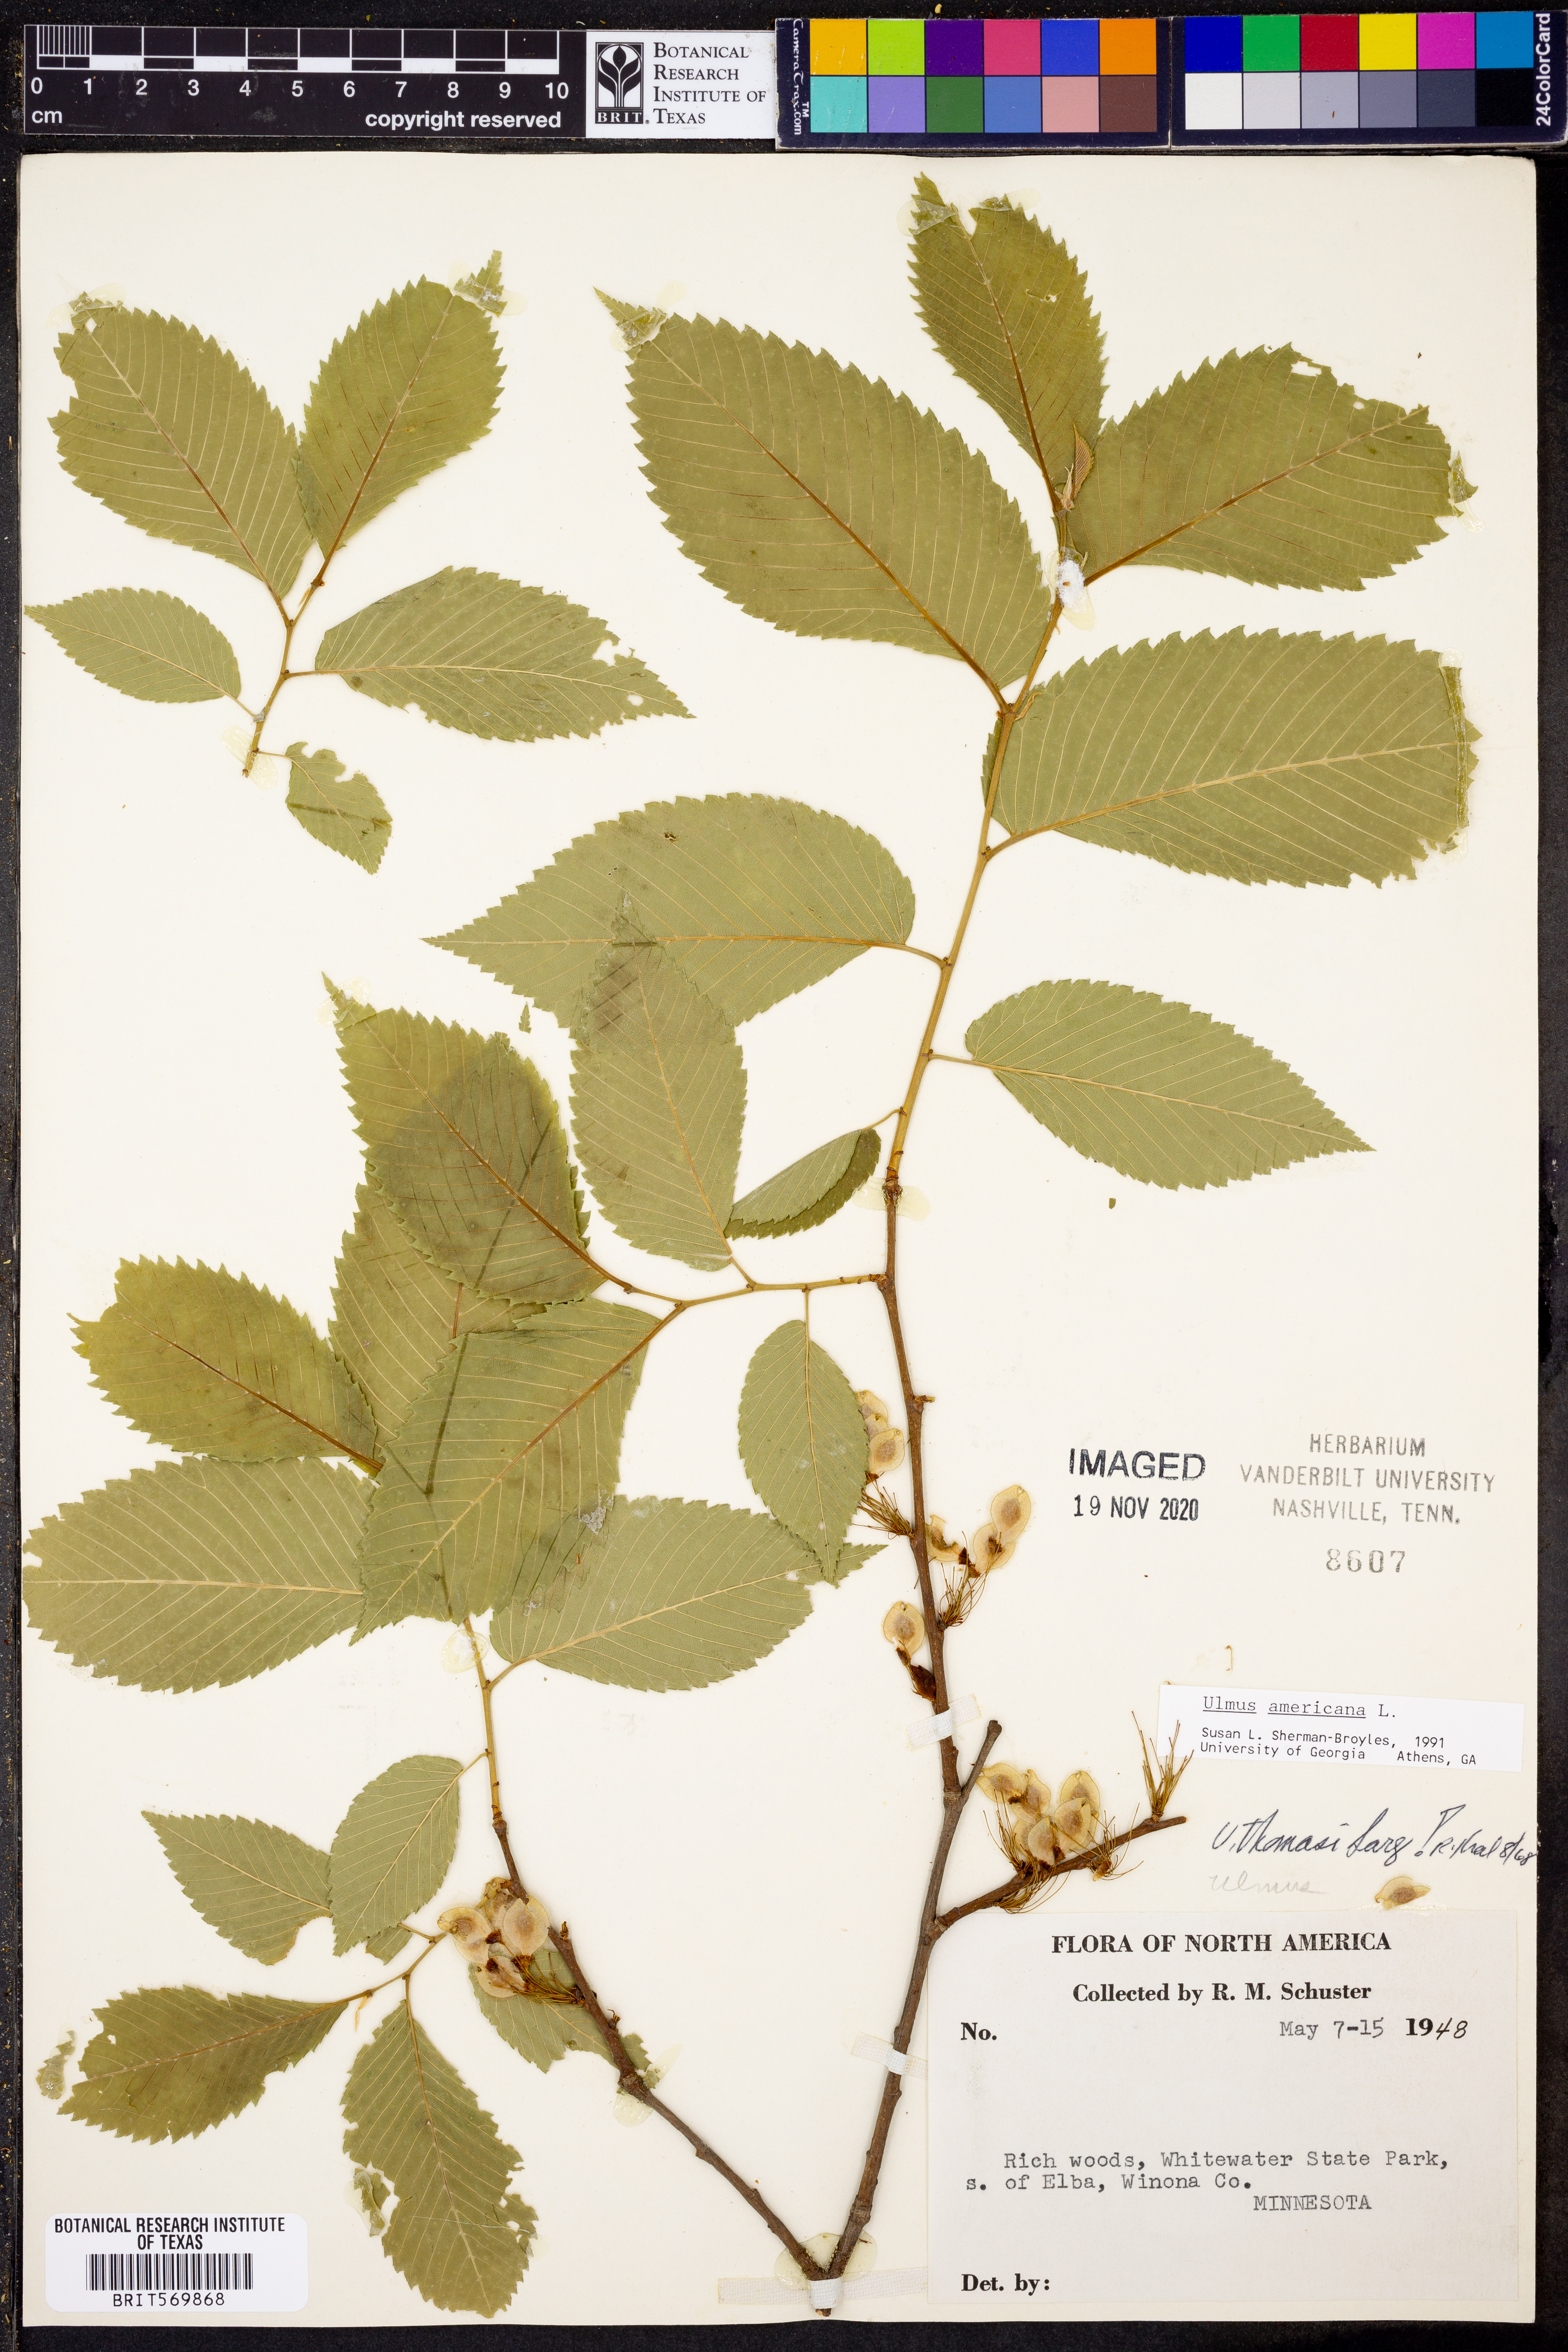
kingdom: Plantae
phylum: Tracheophyta
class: Magnoliopsida
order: Rosales
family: Ulmaceae
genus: Ulmus
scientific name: Ulmus americana
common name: American elm
